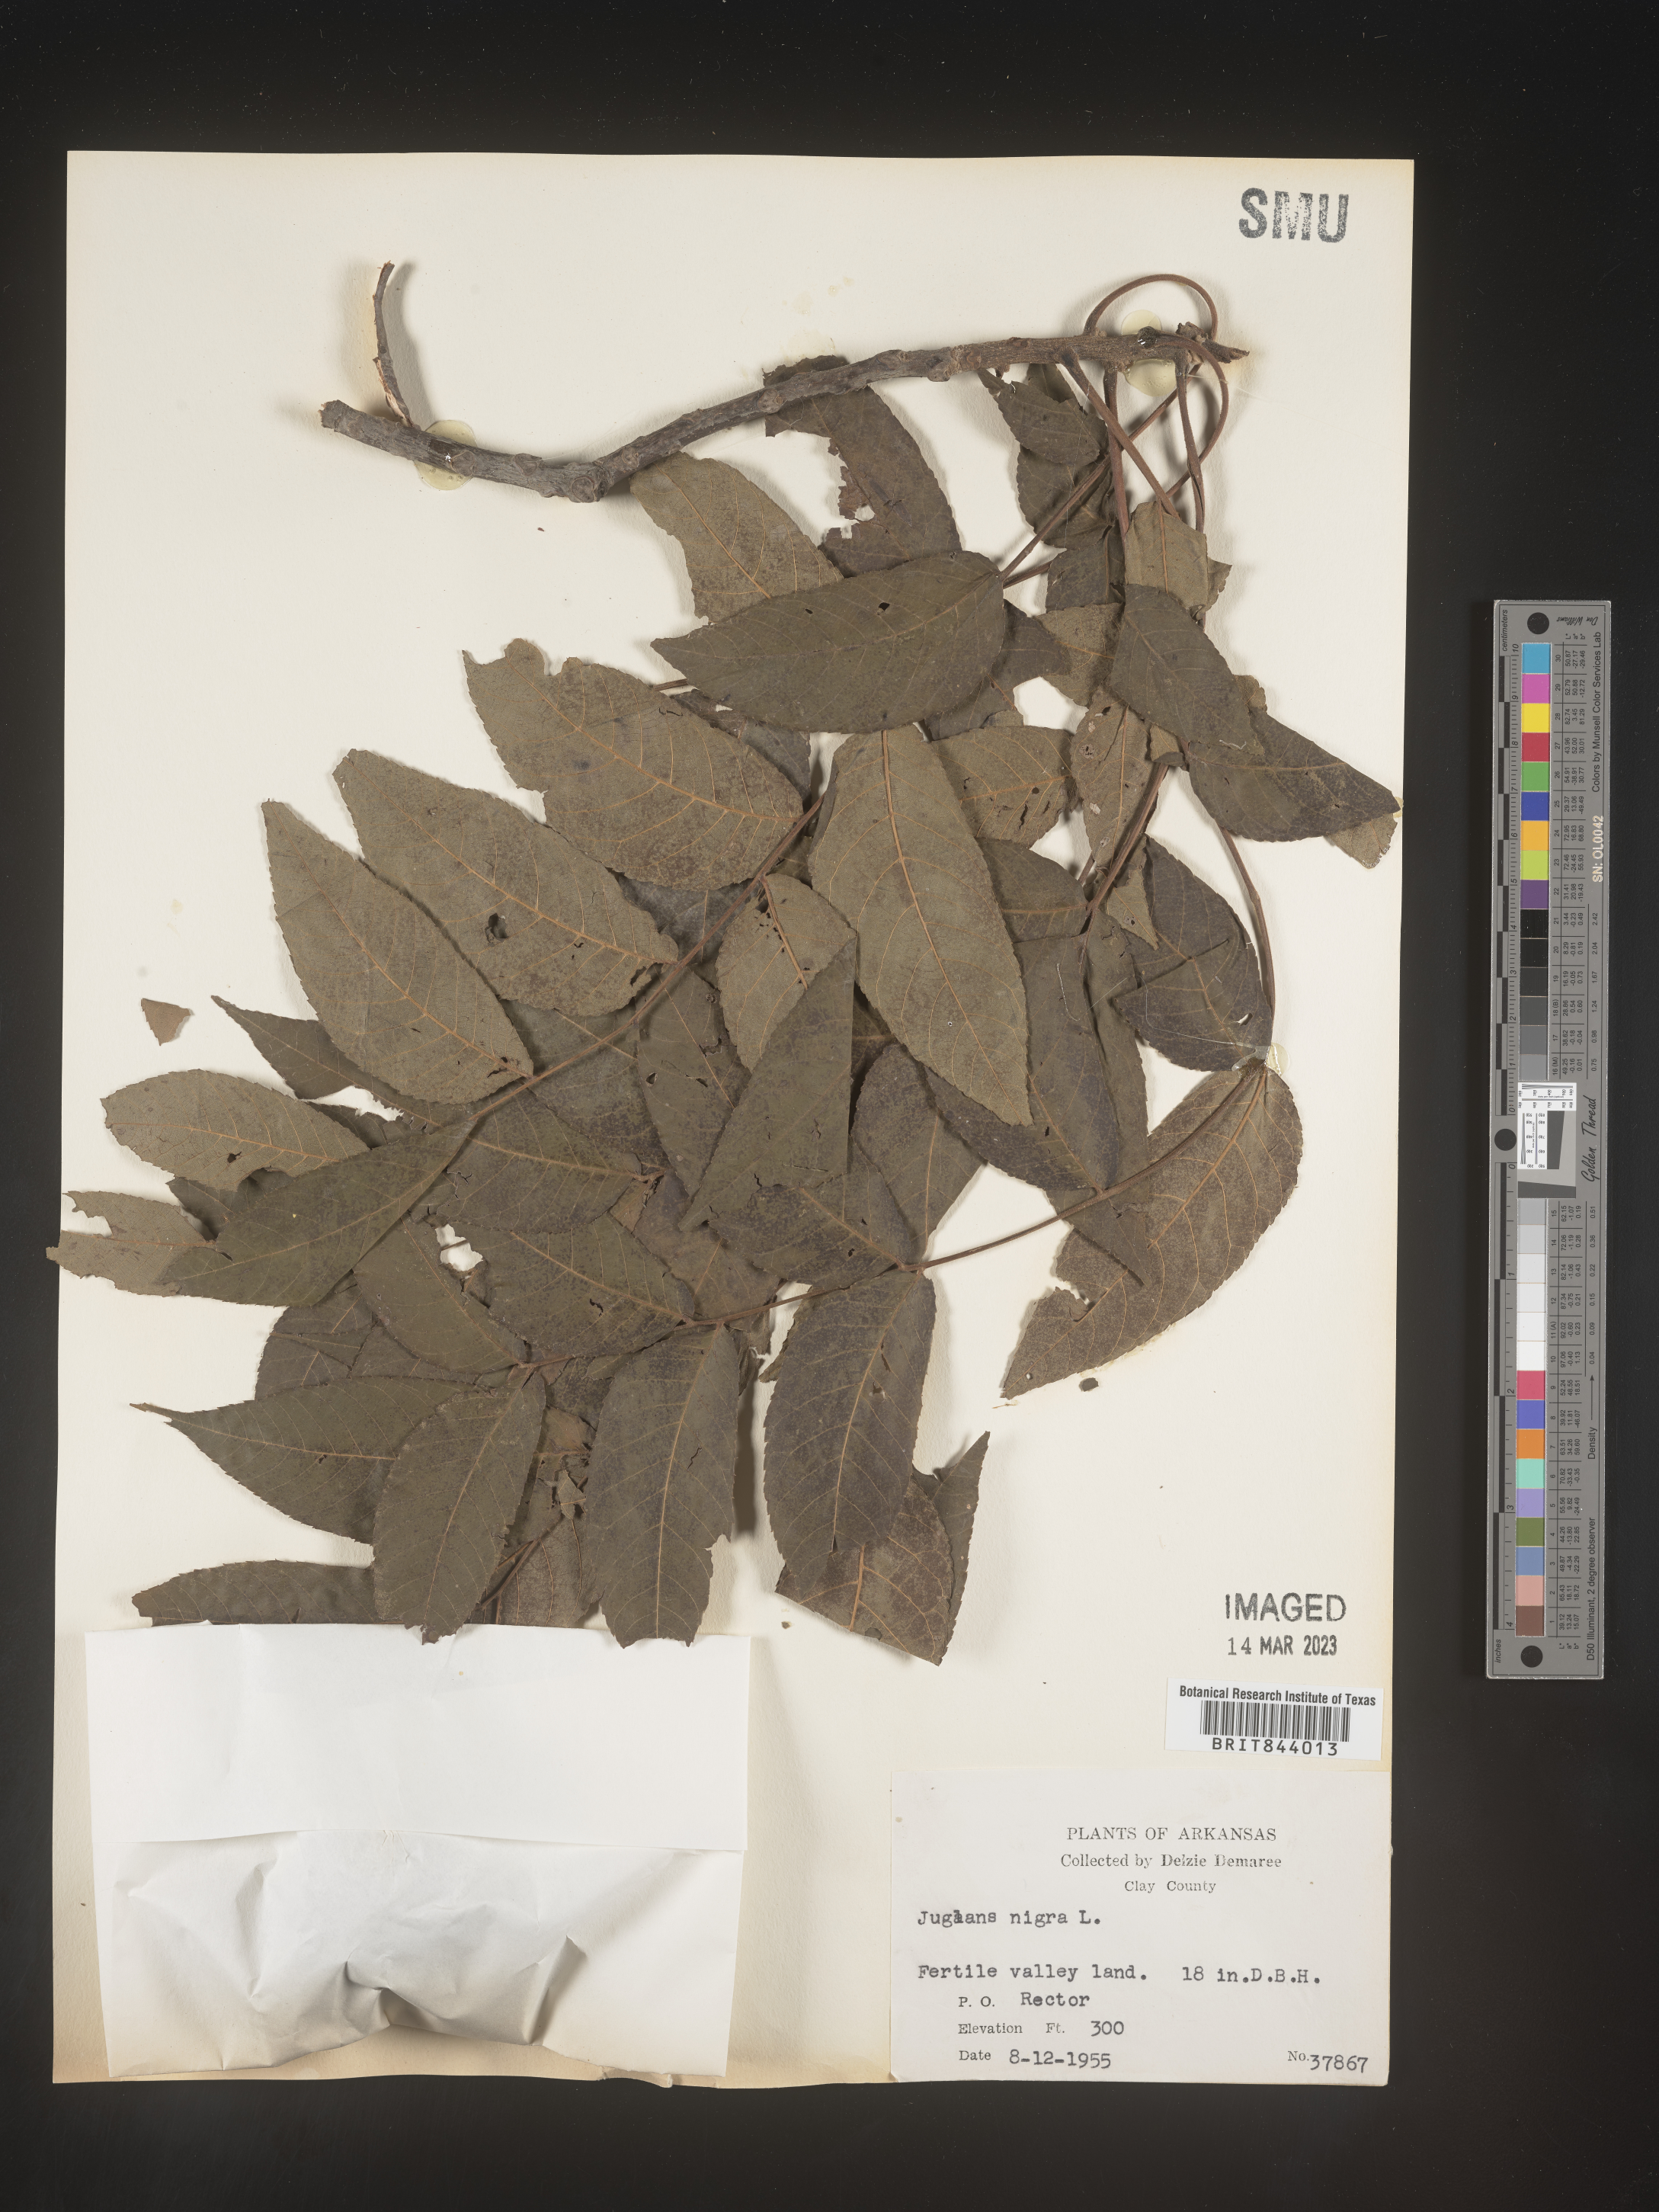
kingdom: Plantae
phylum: Tracheophyta
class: Magnoliopsida
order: Fagales
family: Juglandaceae
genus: Juglans
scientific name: Juglans nigra
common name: Black walnut
